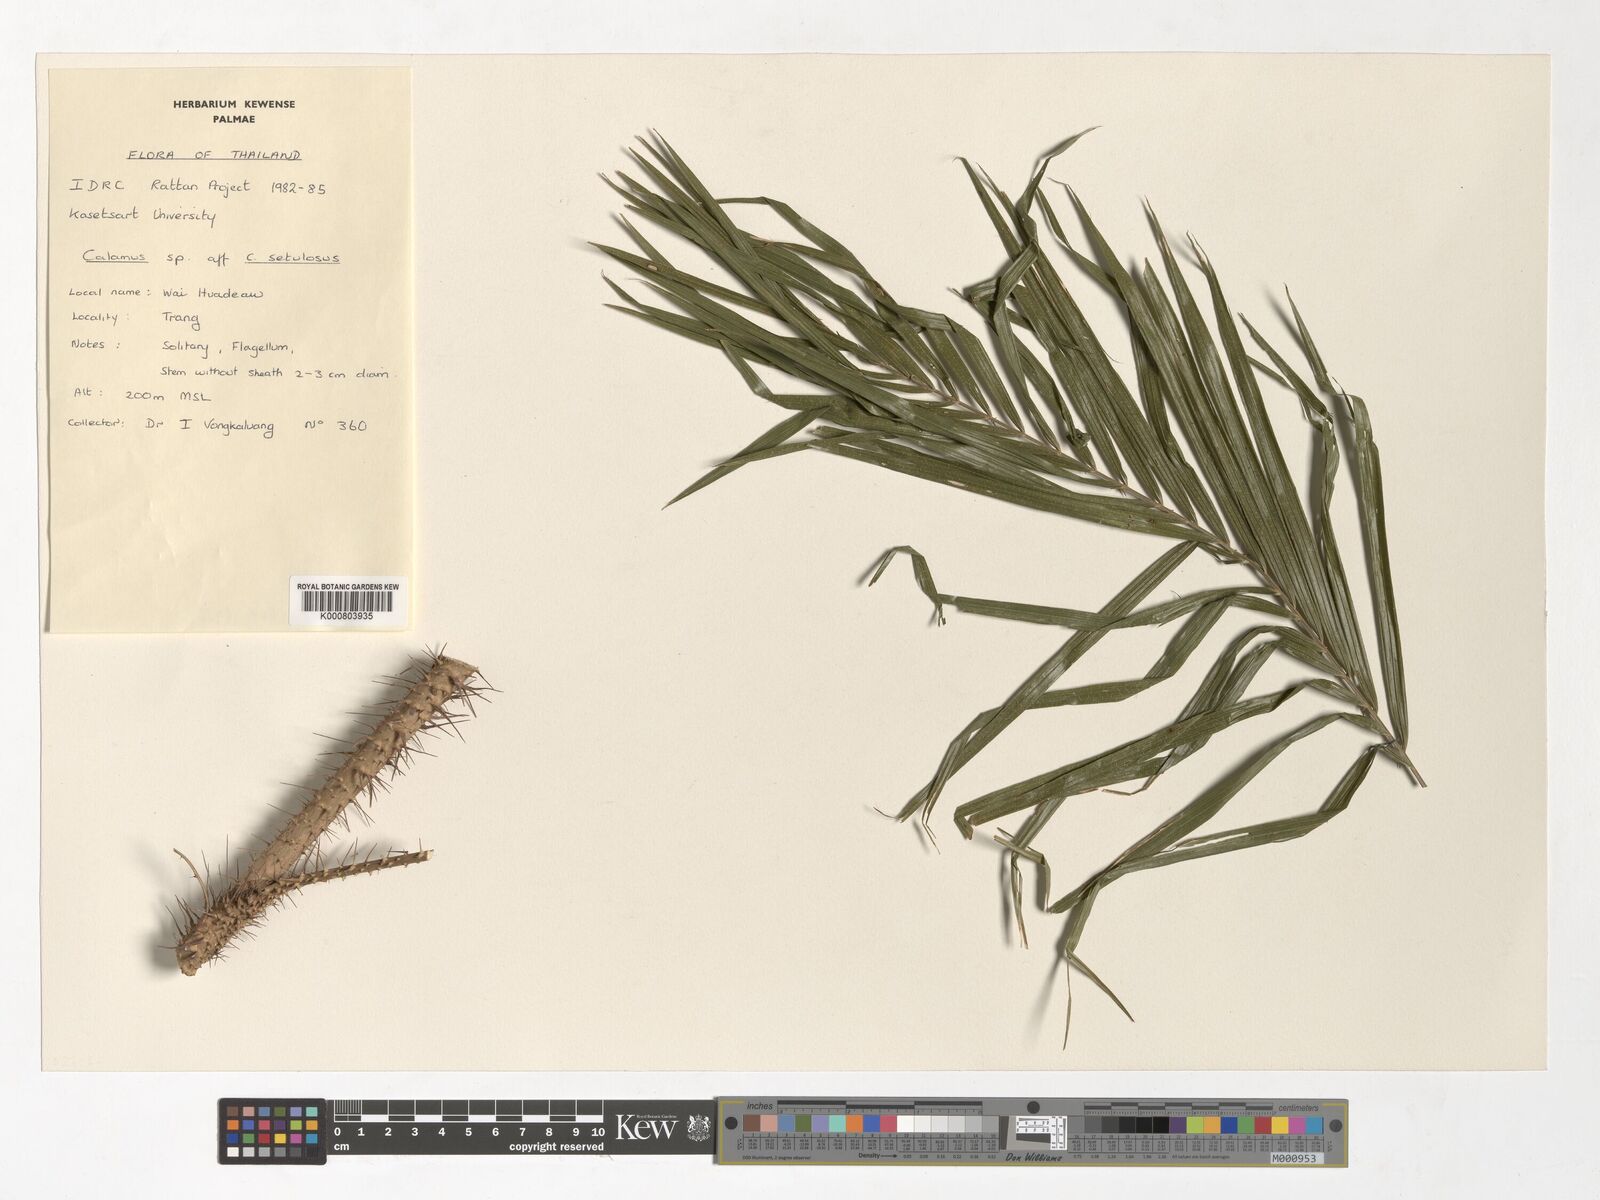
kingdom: Plantae
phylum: Tracheophyta
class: Liliopsida
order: Arecales
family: Arecaceae
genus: Calamus
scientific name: Calamus balingensis
